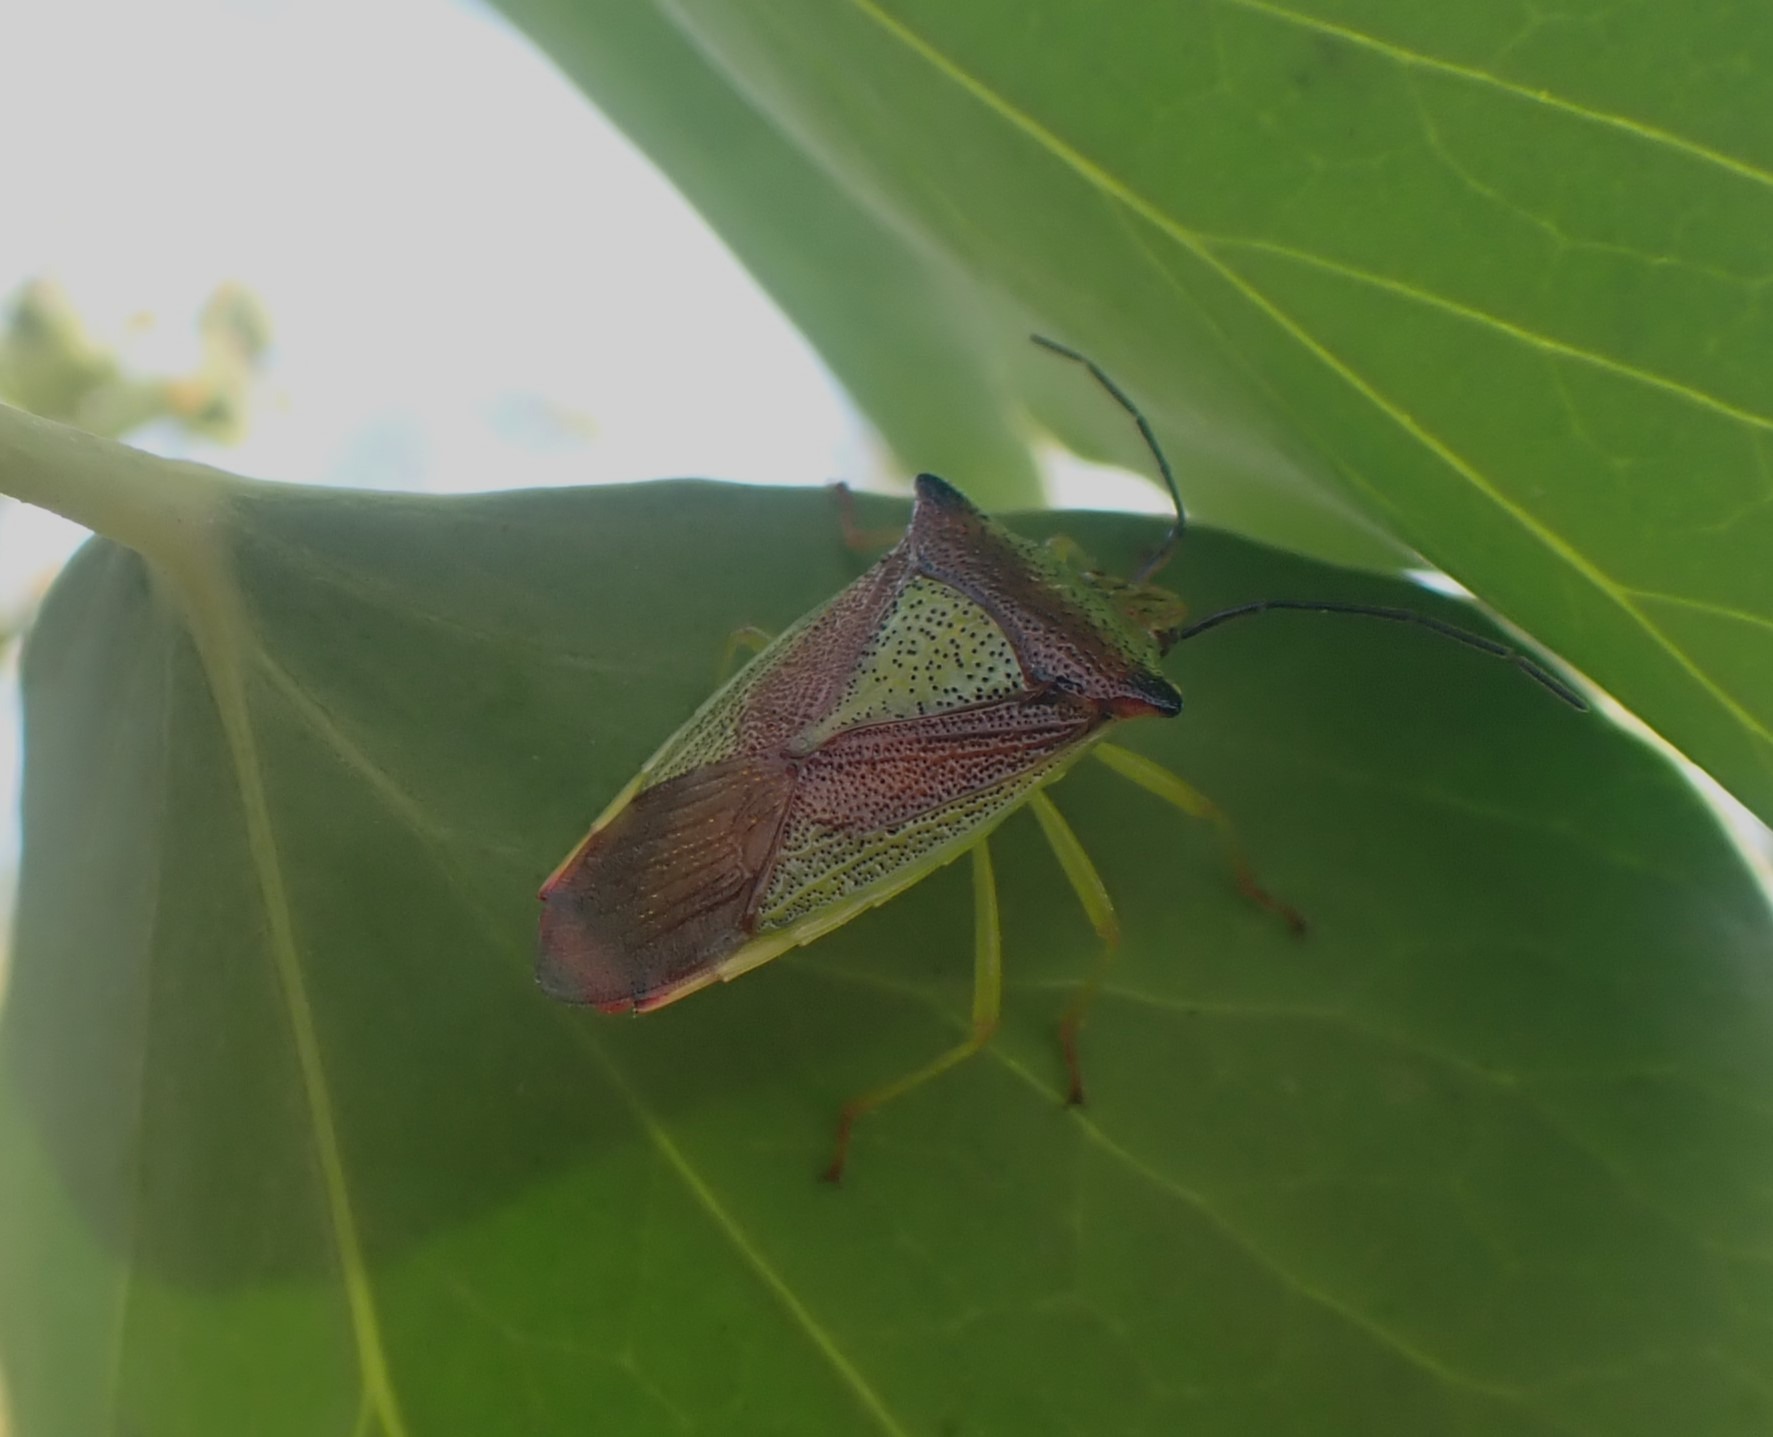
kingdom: Animalia
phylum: Arthropoda
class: Insecta
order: Hemiptera
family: Acanthosomatidae
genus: Acanthosoma
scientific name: Acanthosoma haemorrhoidale
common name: Stor løvtæge
